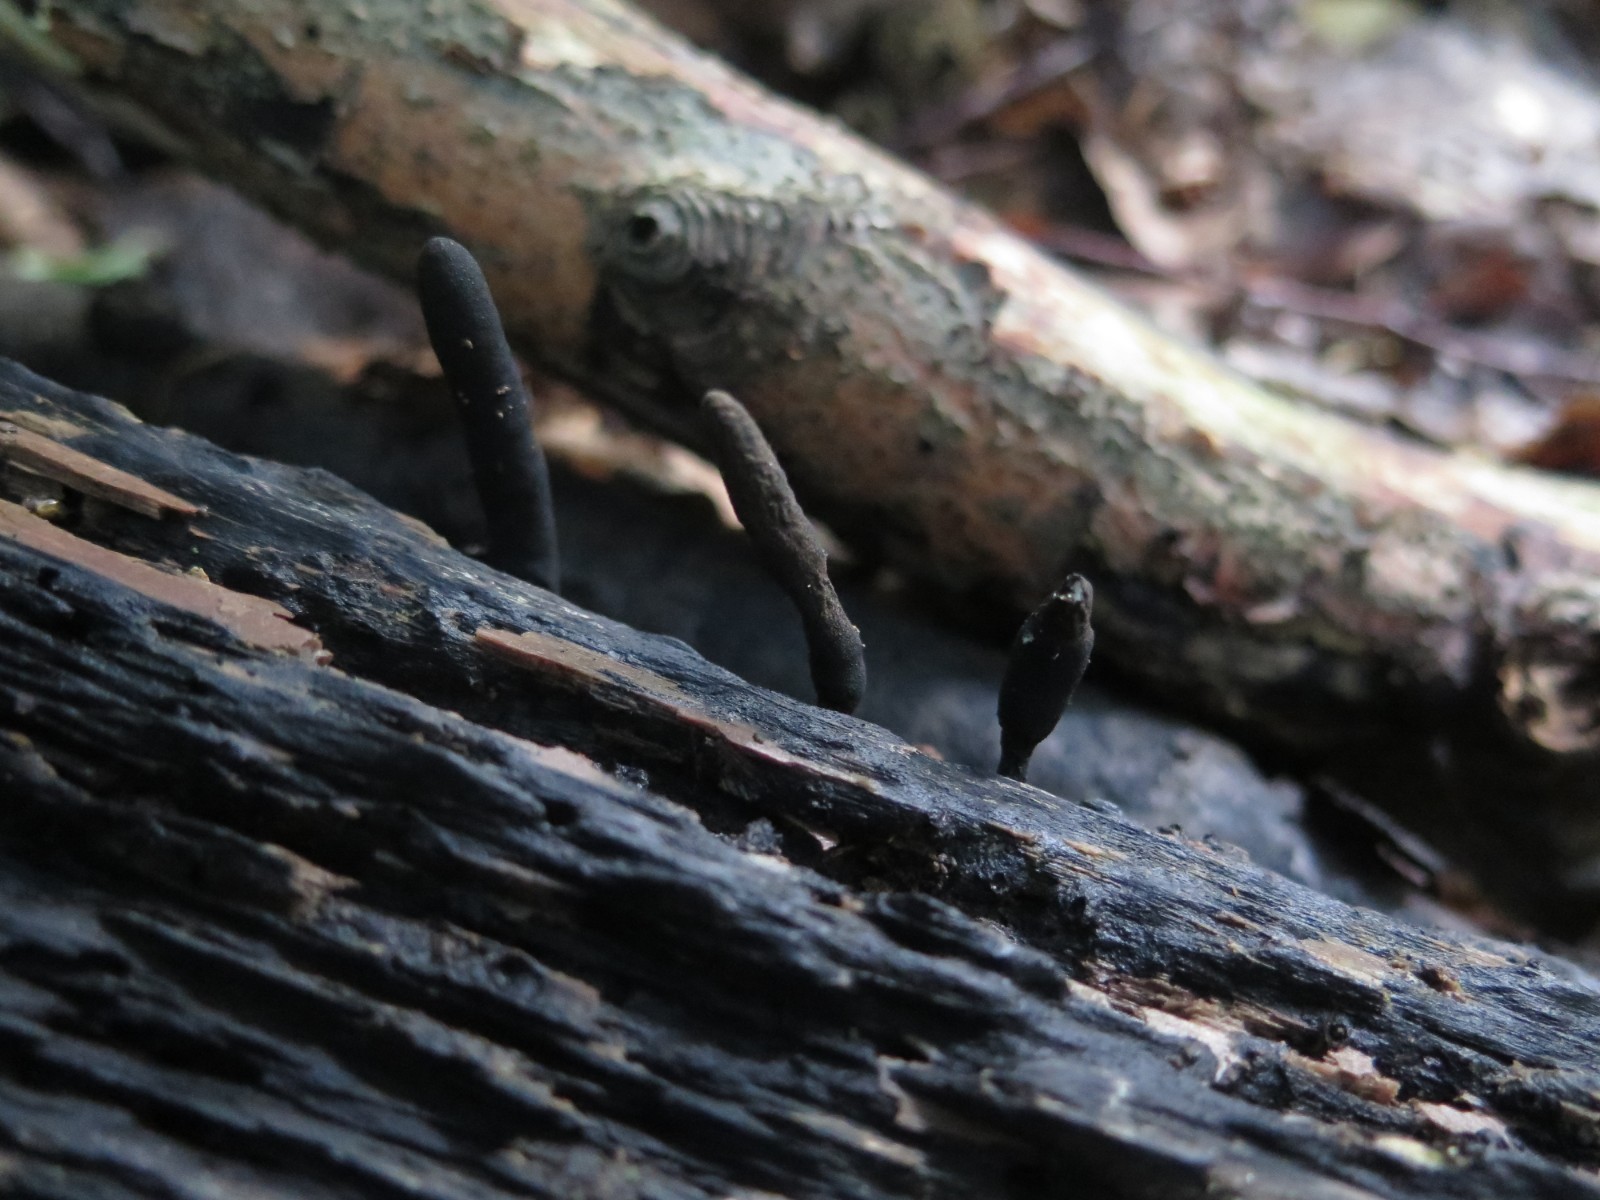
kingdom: Fungi
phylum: Ascomycota
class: Sordariomycetes
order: Xylariales
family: Xylariaceae
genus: Xylaria
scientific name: Xylaria longipes
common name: slank stødsvamp
